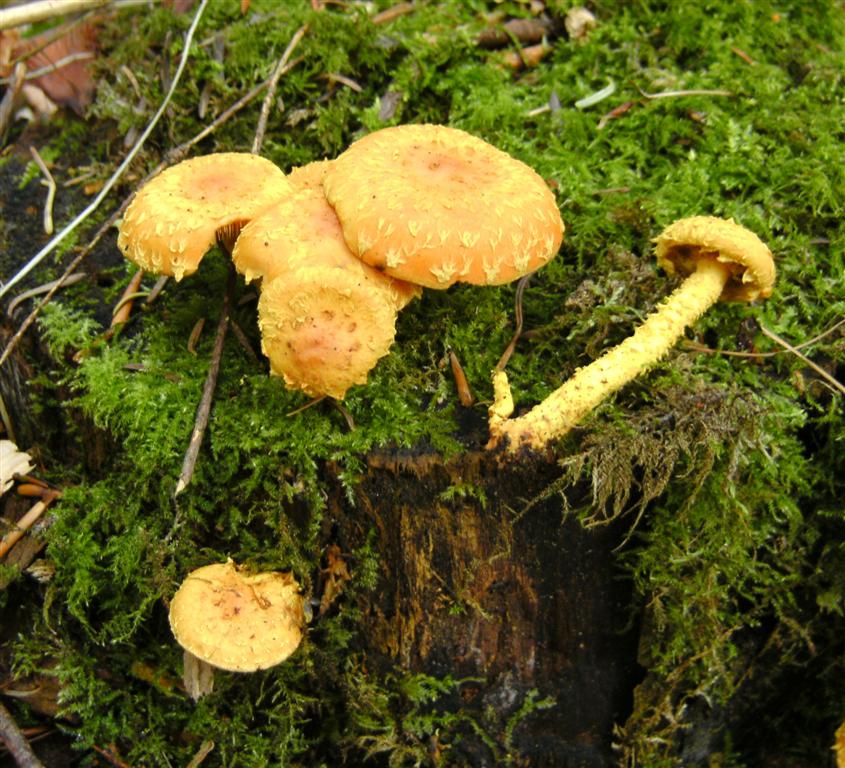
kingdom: Fungi
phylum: Basidiomycota
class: Agaricomycetes
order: Agaricales
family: Strophariaceae
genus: Pholiota
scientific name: Pholiota flammans
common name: flamme-skælhat
